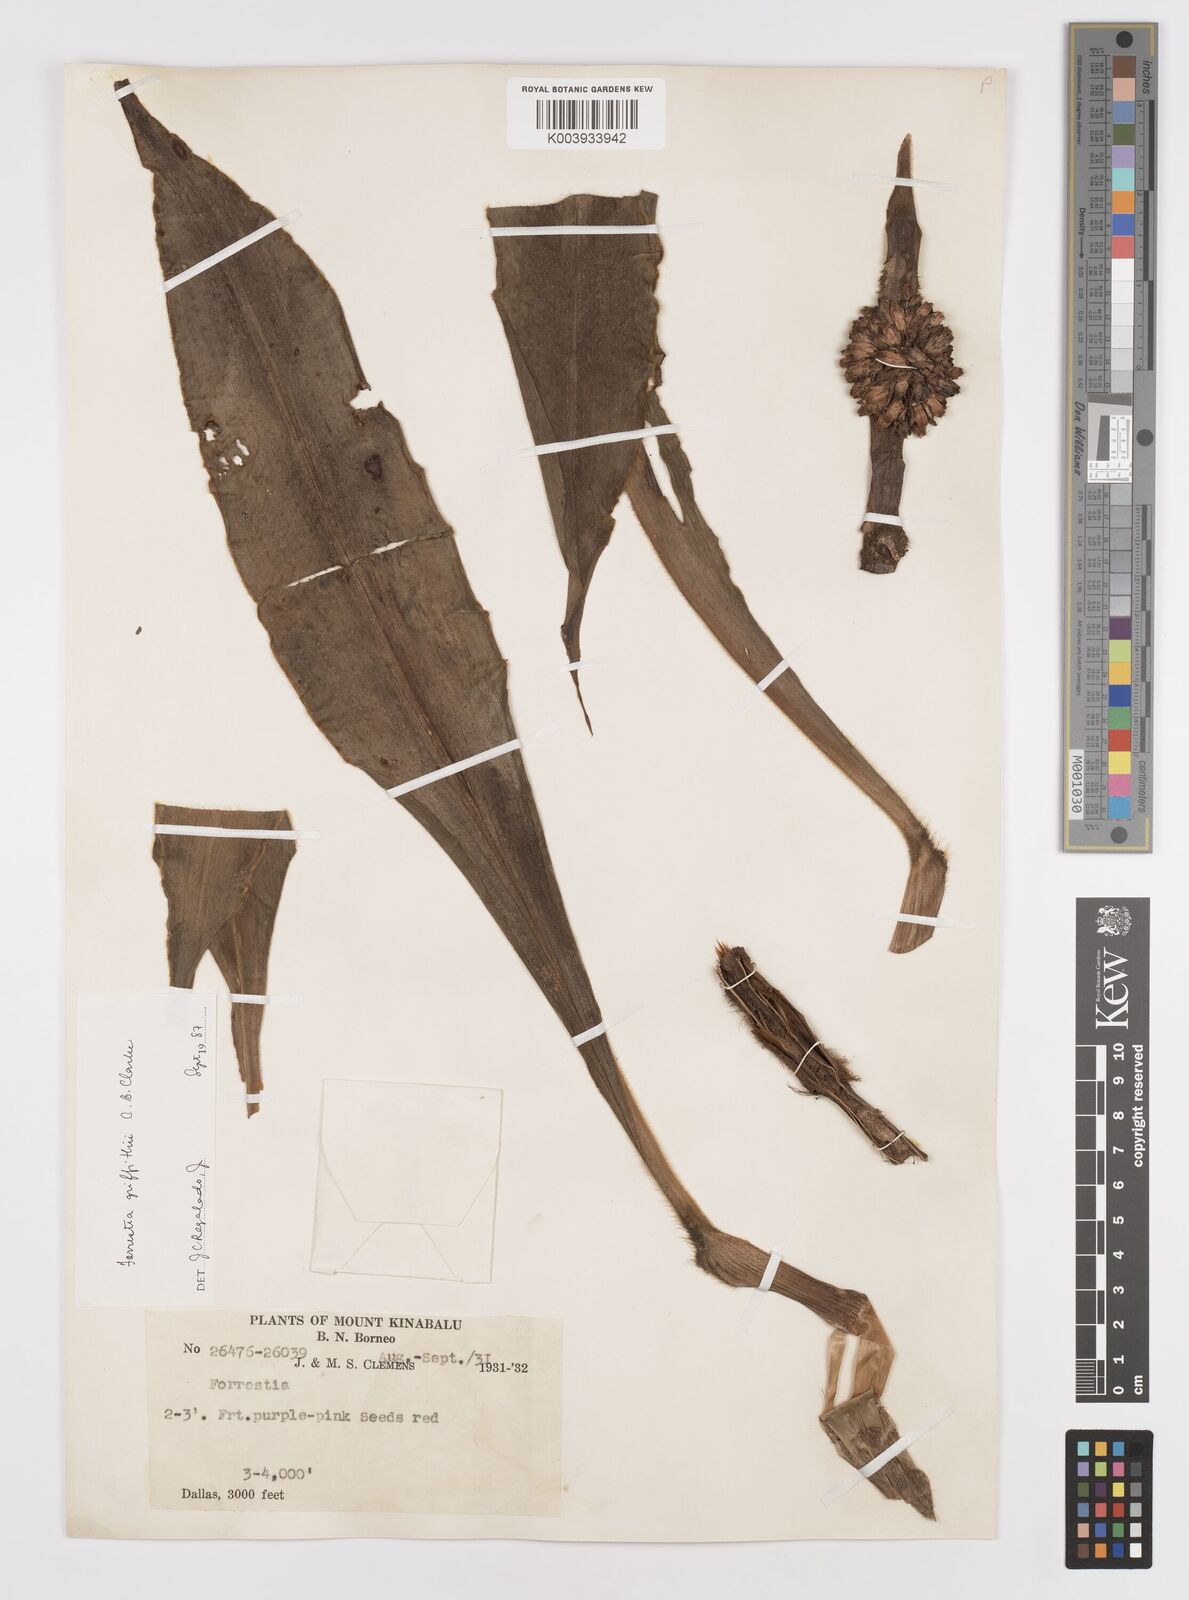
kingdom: Plantae
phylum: Tracheophyta
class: Liliopsida
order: Commelinales
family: Commelinaceae
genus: Amischotolype
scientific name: Amischotolype griffithii
